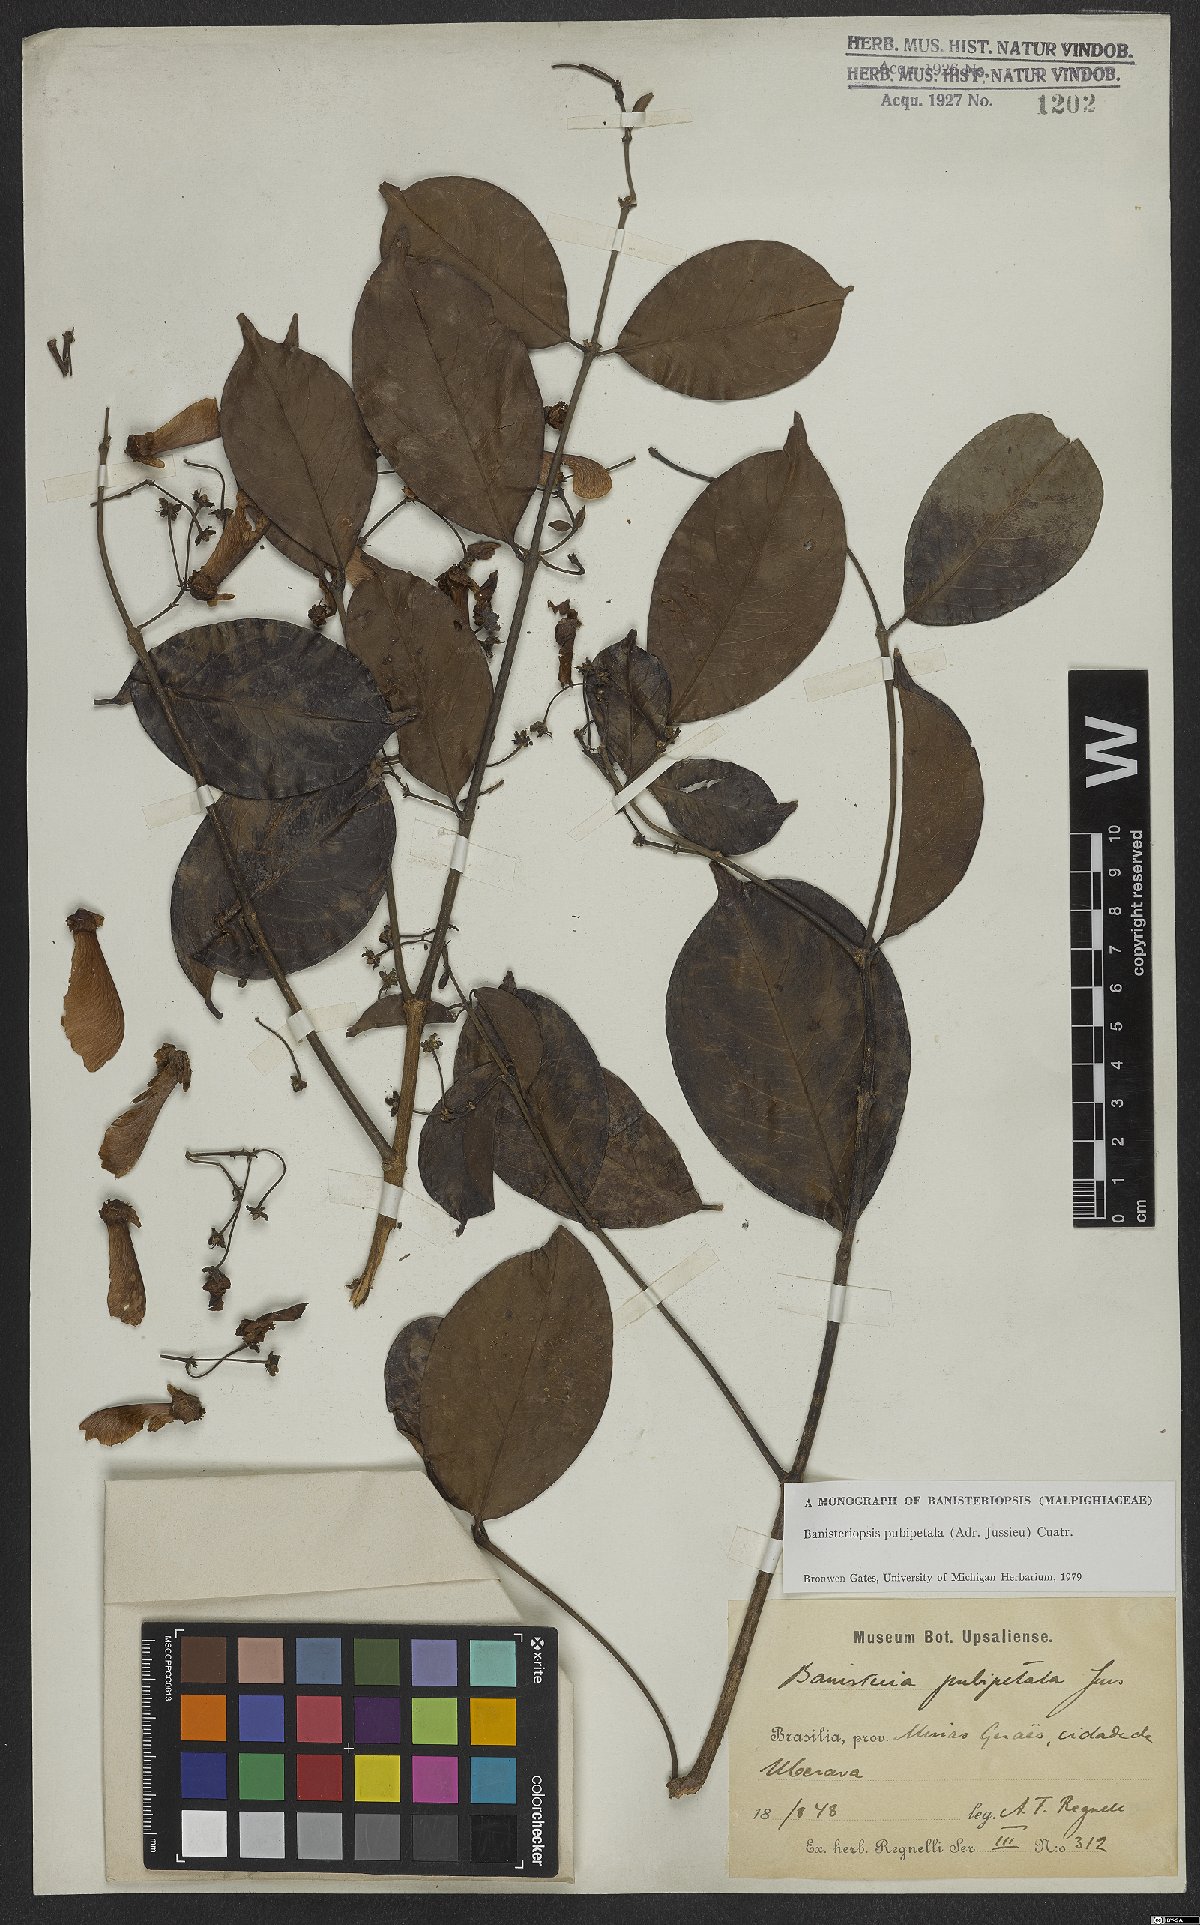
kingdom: Plantae
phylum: Tracheophyta
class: Magnoliopsida
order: Malpighiales
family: Malpighiaceae
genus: Diplopterys
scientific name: Diplopterys pubipetala
